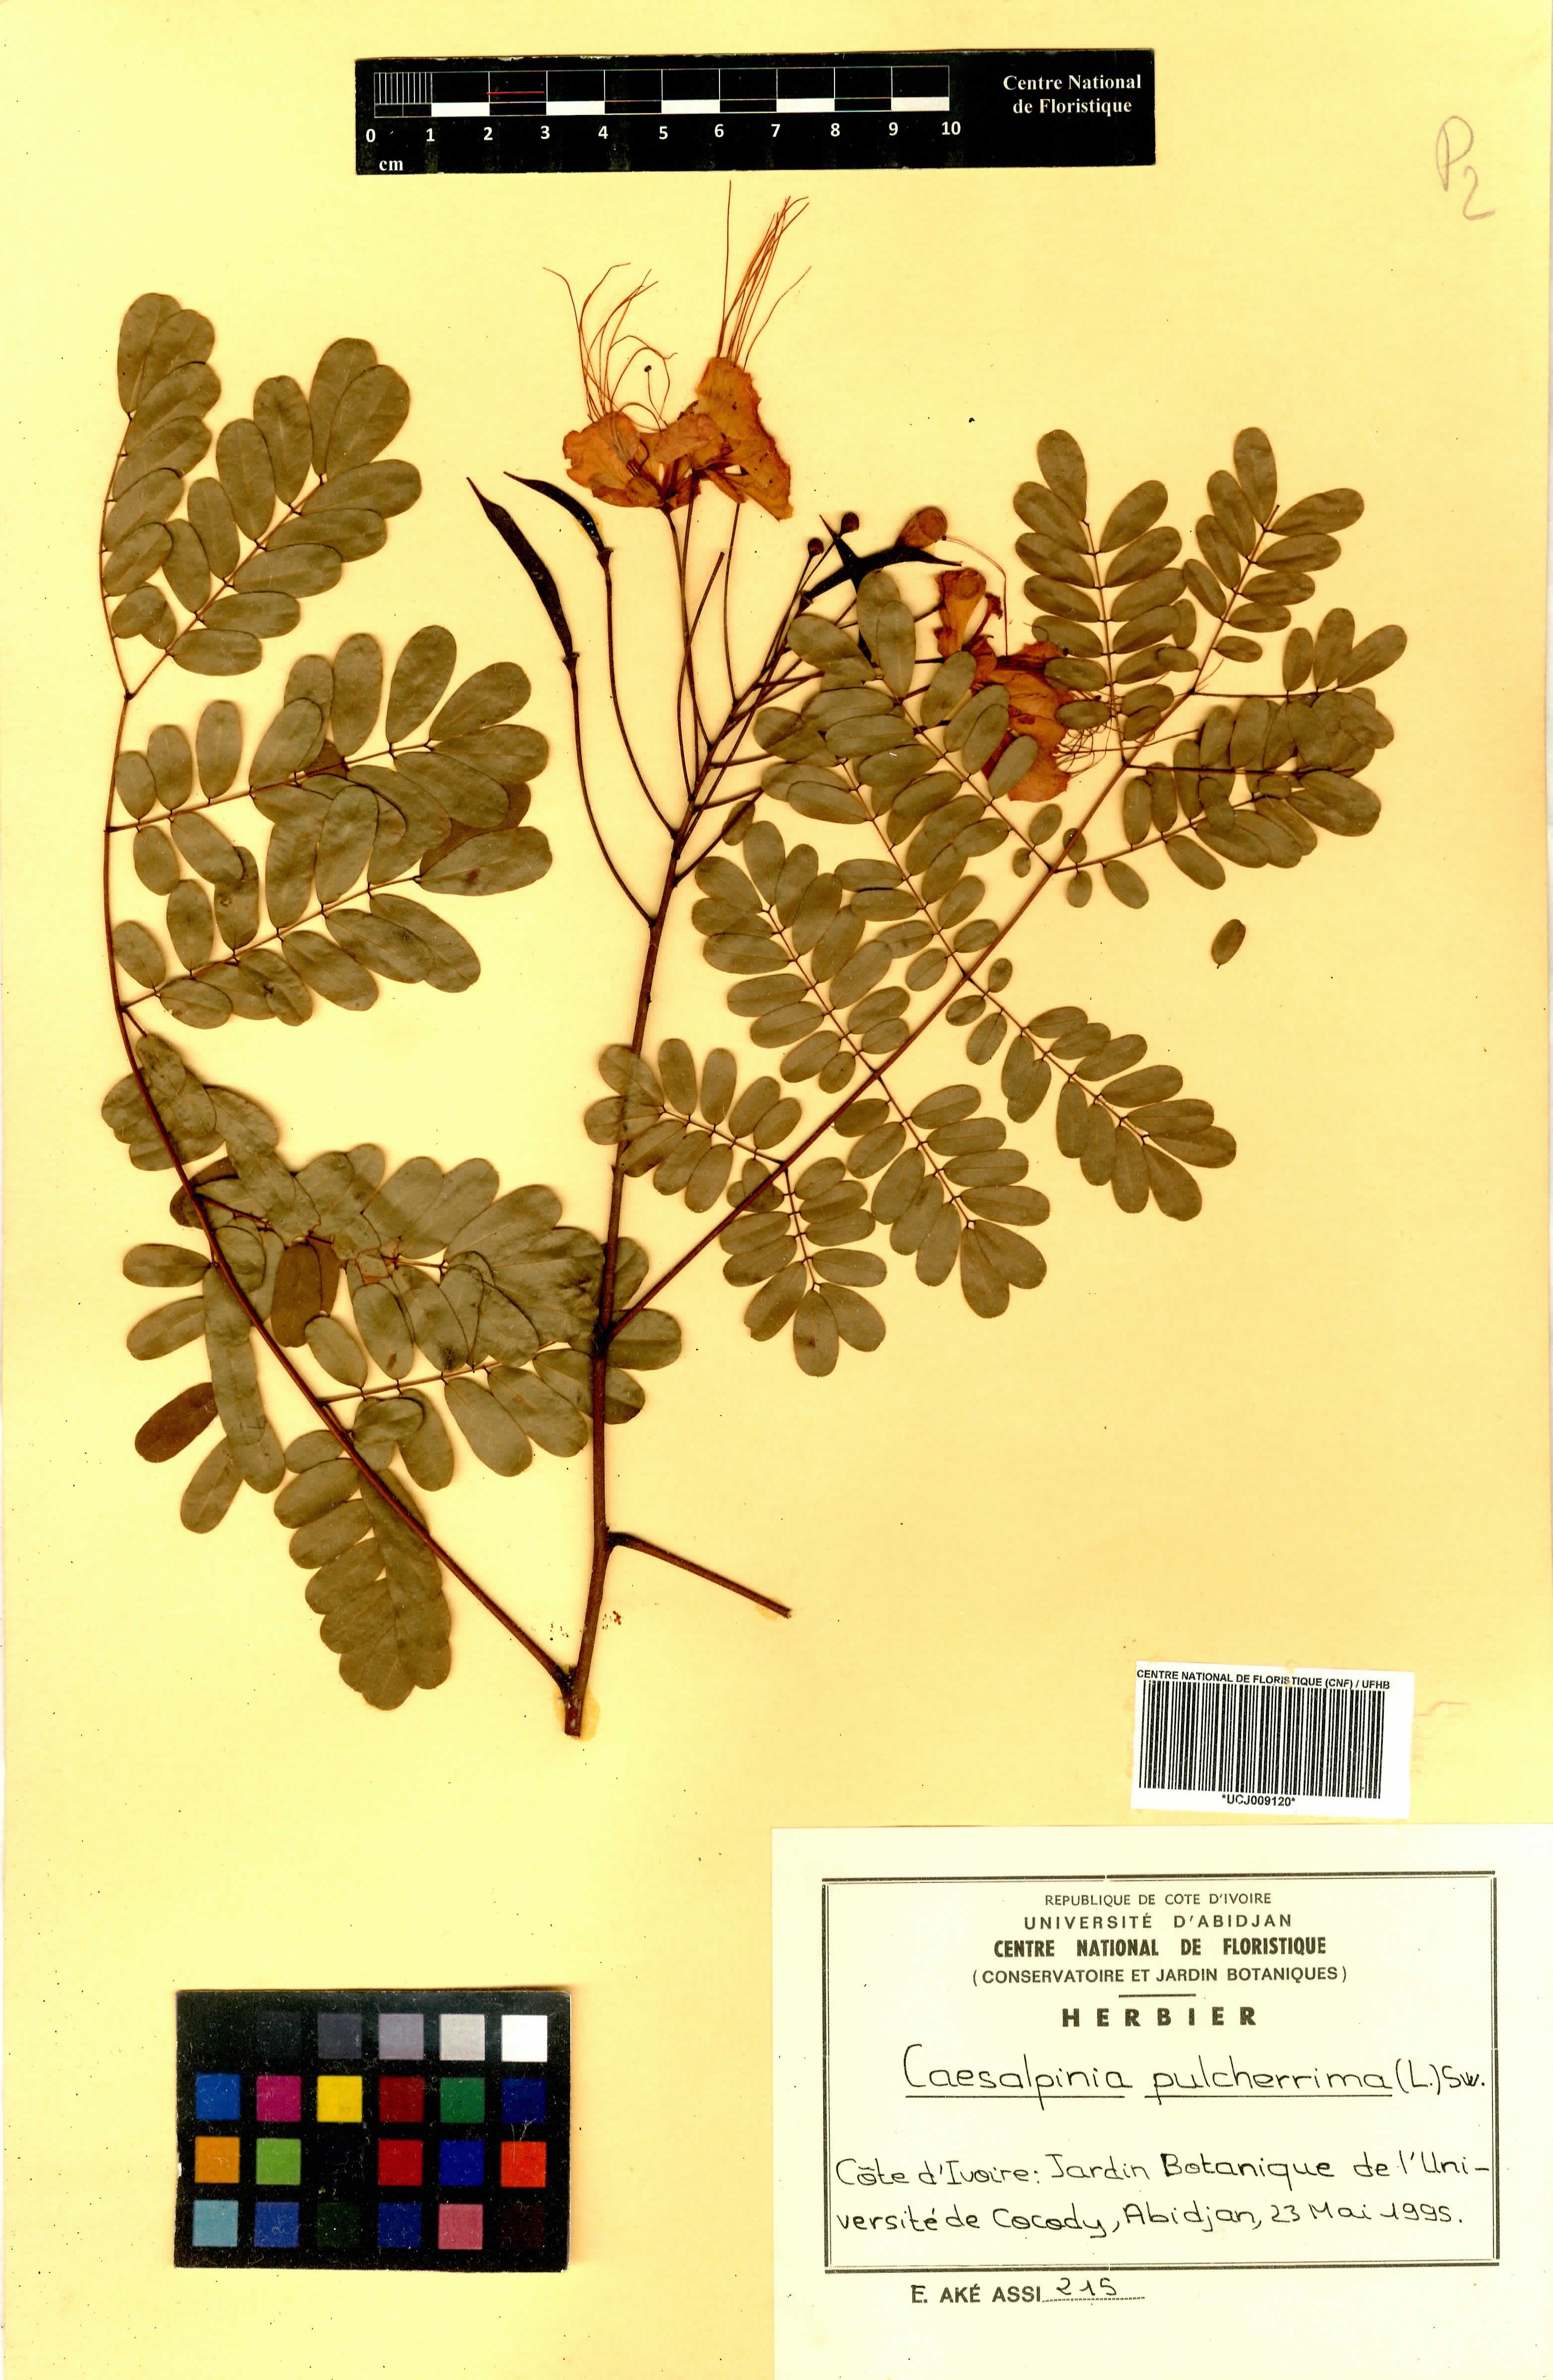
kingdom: Plantae
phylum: Tracheophyta
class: Magnoliopsida
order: Fabales
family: Fabaceae
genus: Caesalpinia
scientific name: Caesalpinia pulcherrima
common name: Pride-of-barbados
